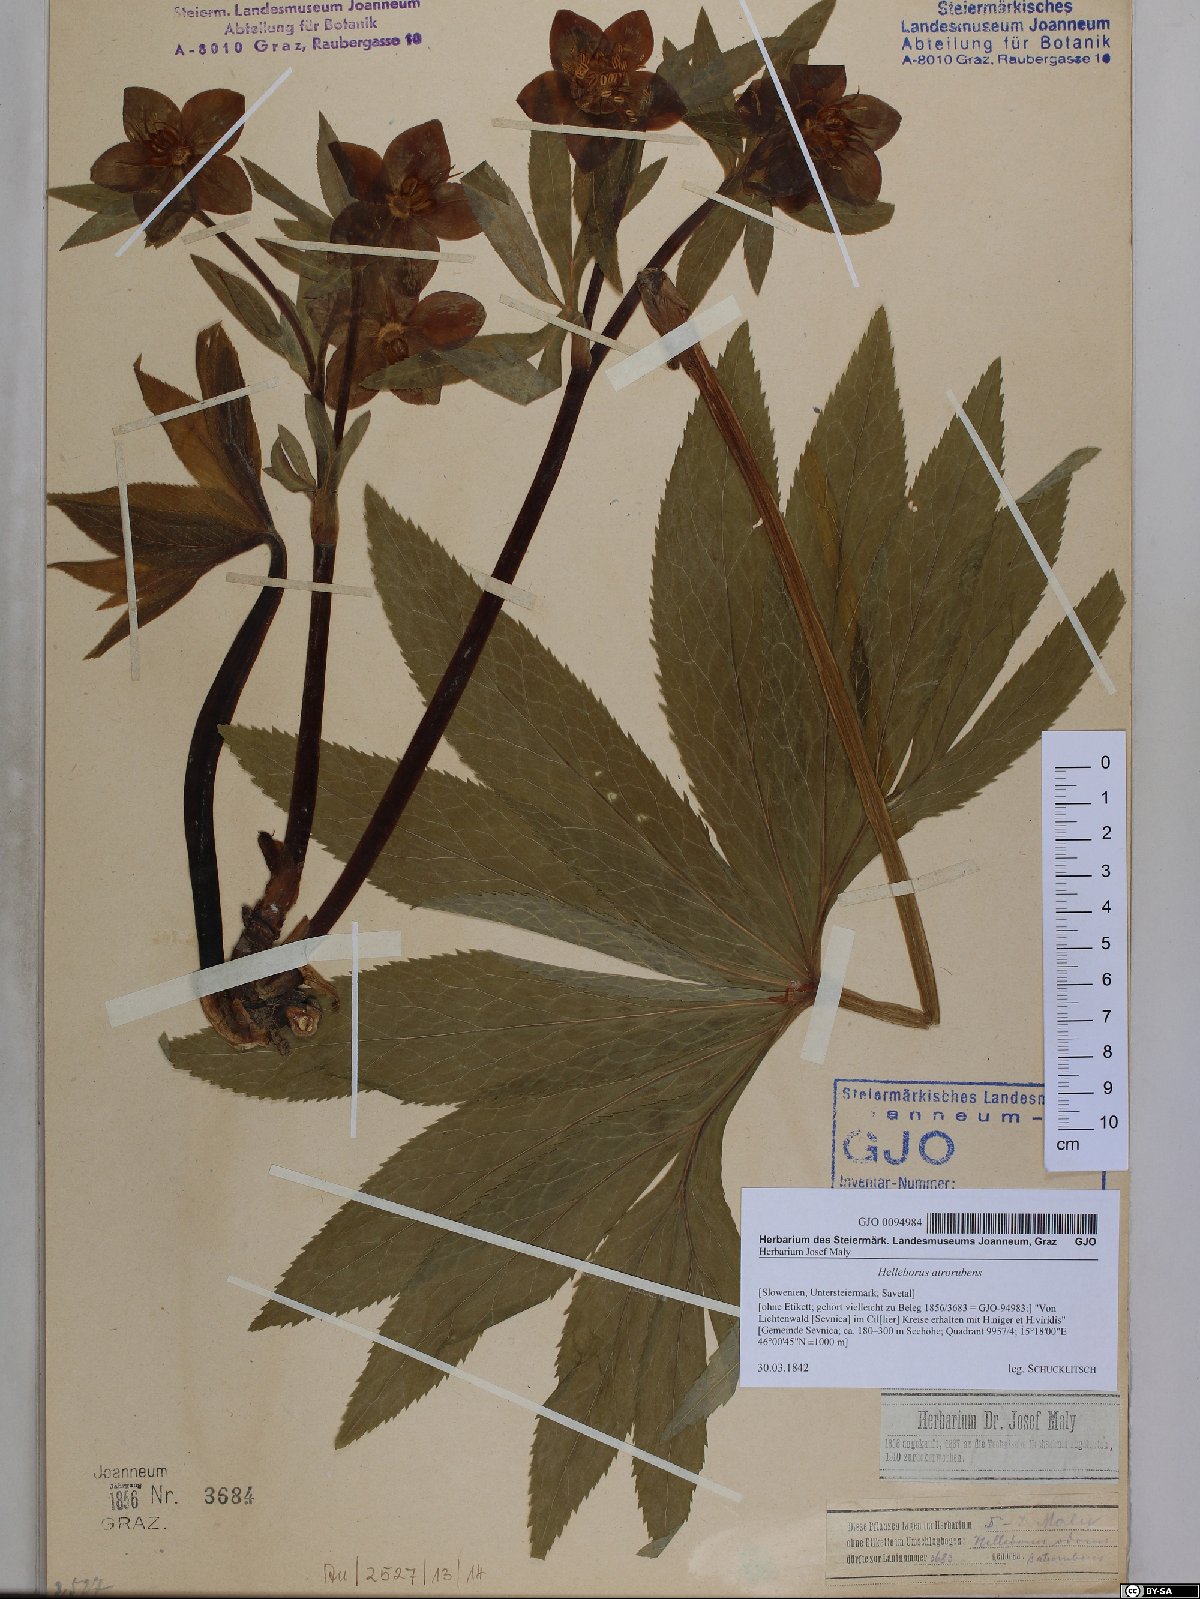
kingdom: Plantae
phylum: Tracheophyta
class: Magnoliopsida
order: Ranunculales
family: Ranunculaceae
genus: Helleborus
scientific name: Helleborus dumetorum
